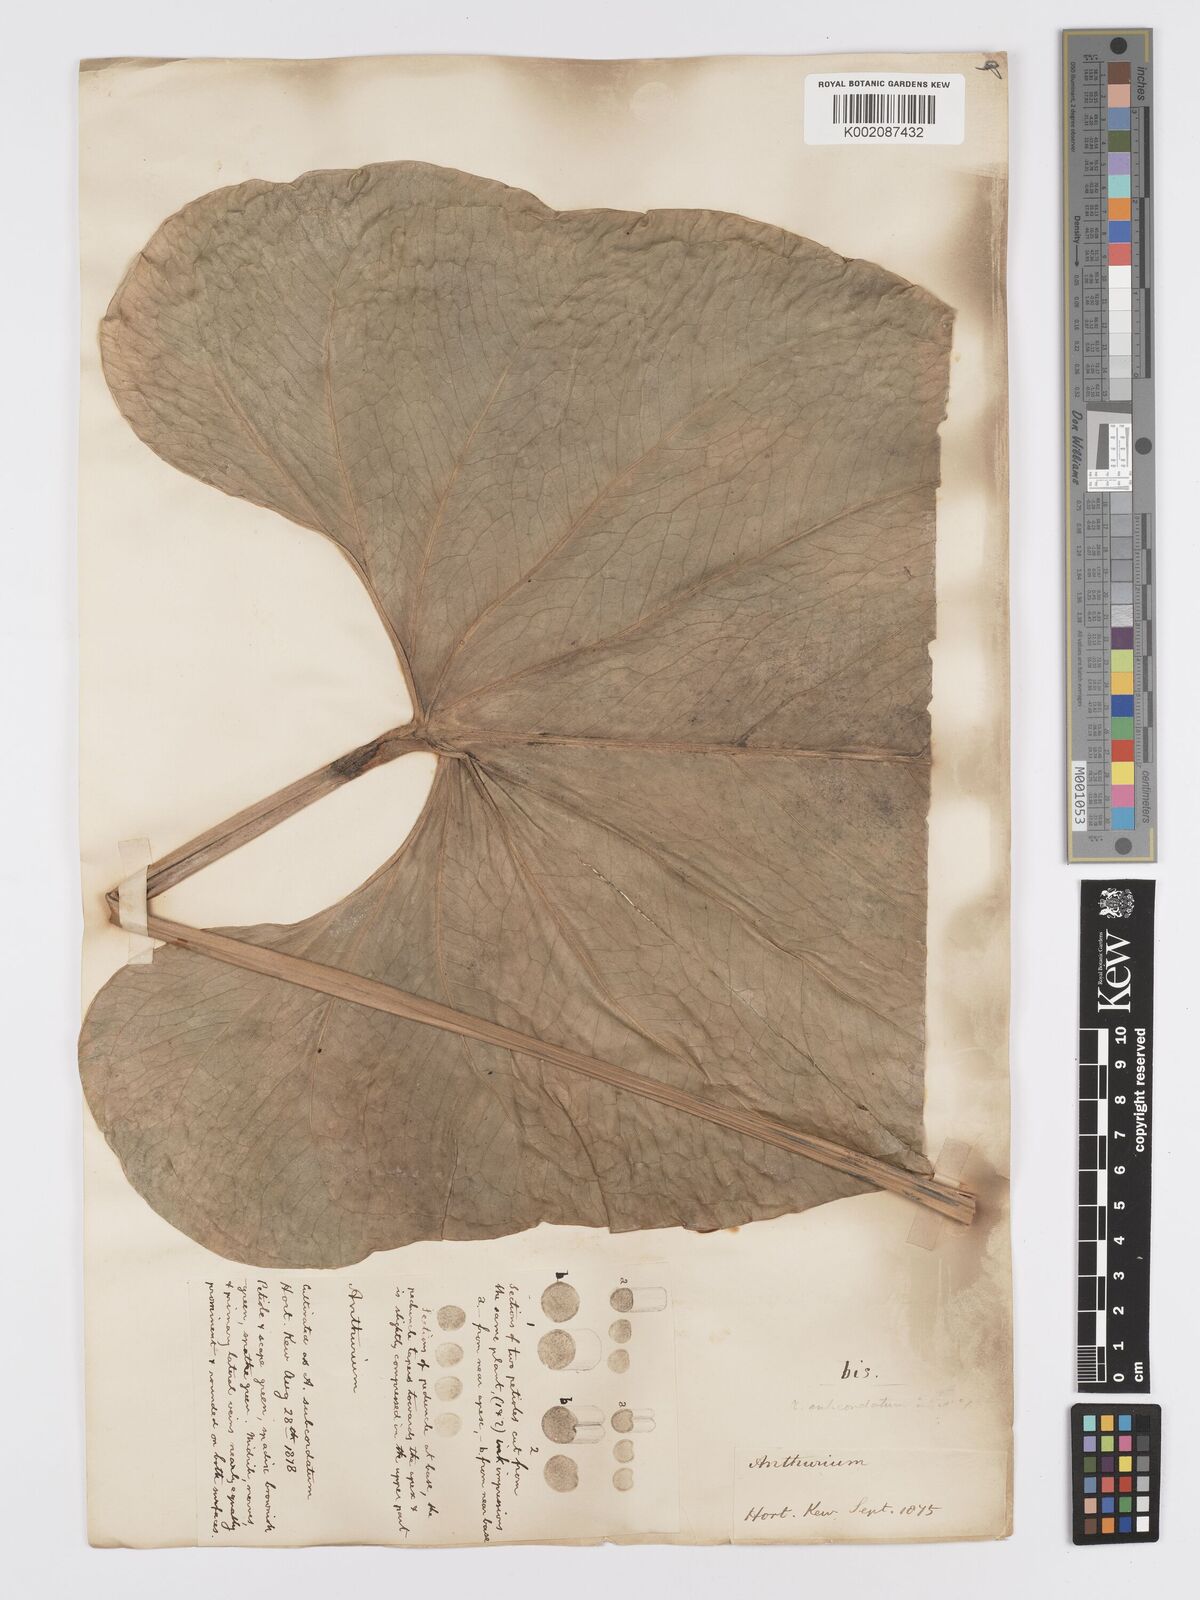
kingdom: Plantae
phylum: Tracheophyta
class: Liliopsida
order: Alismatales
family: Araceae
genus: Anthurium
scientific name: Anthurium
